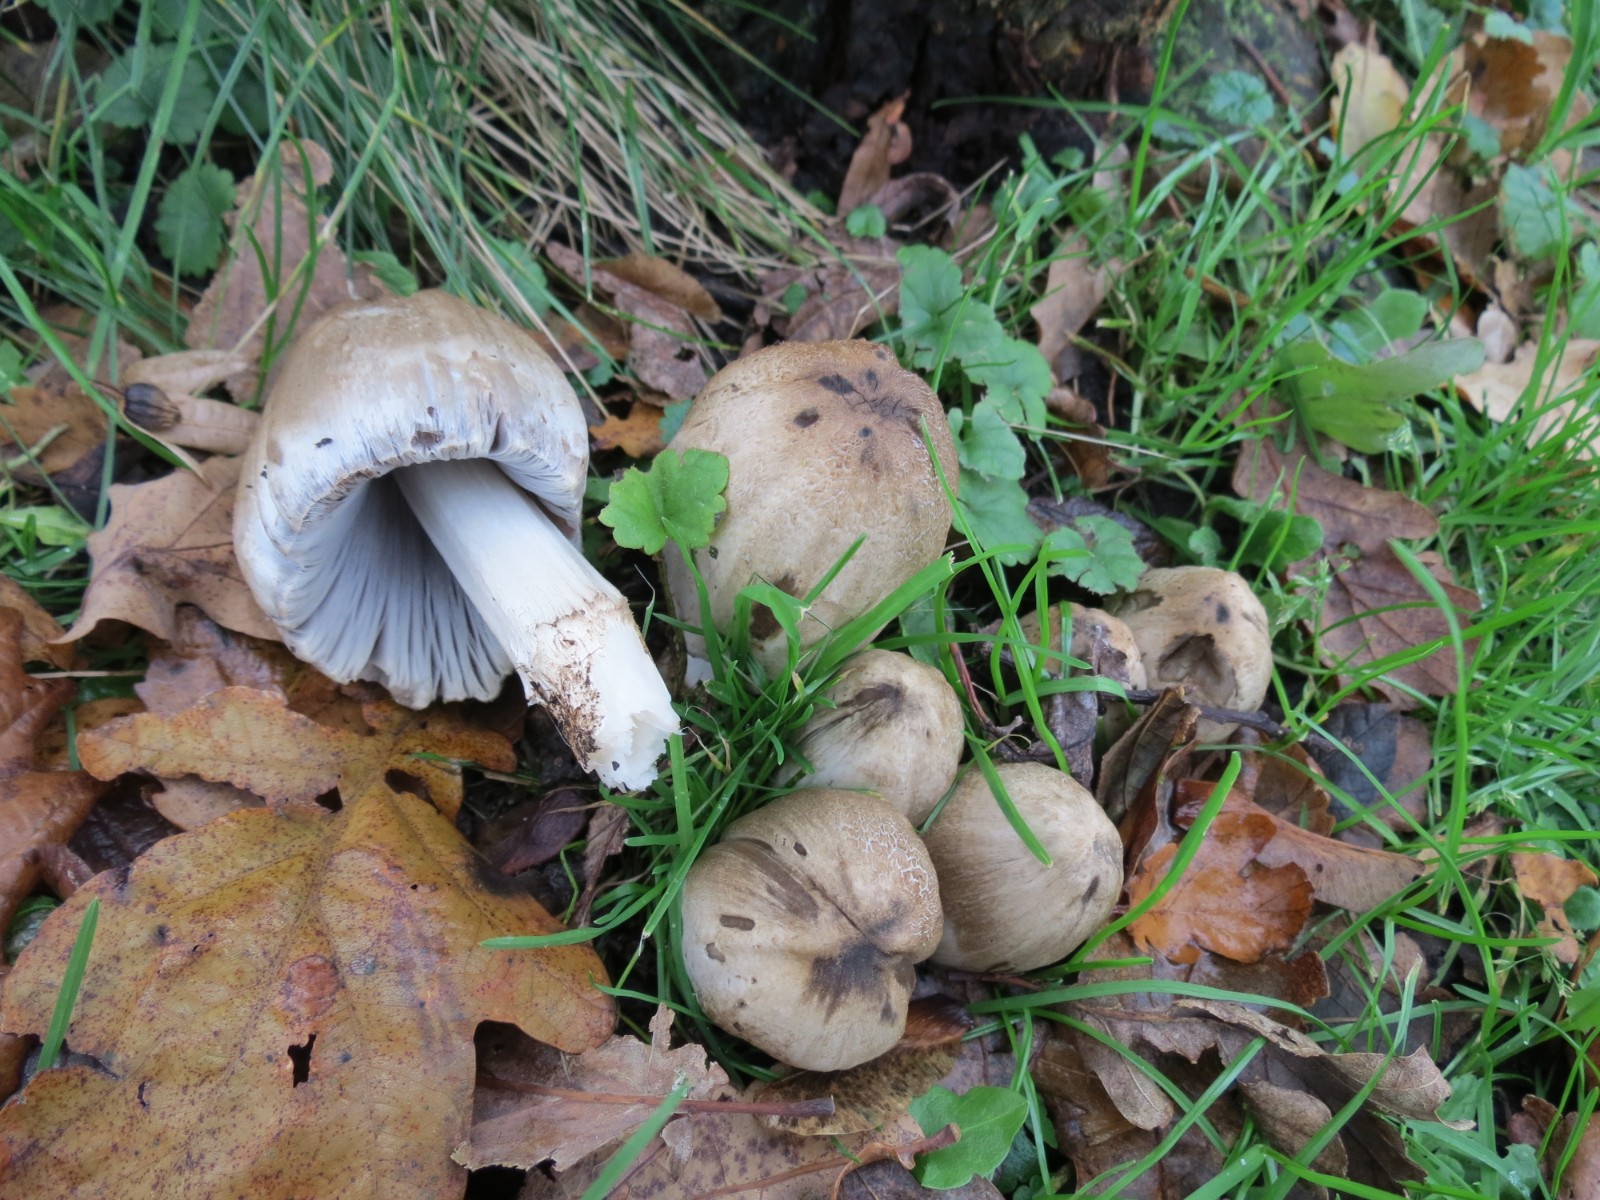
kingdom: Fungi
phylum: Basidiomycota
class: Agaricomycetes
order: Agaricales
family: Psathyrellaceae
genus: Coprinopsis
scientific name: Coprinopsis atramentaria
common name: almindelig blækhat
